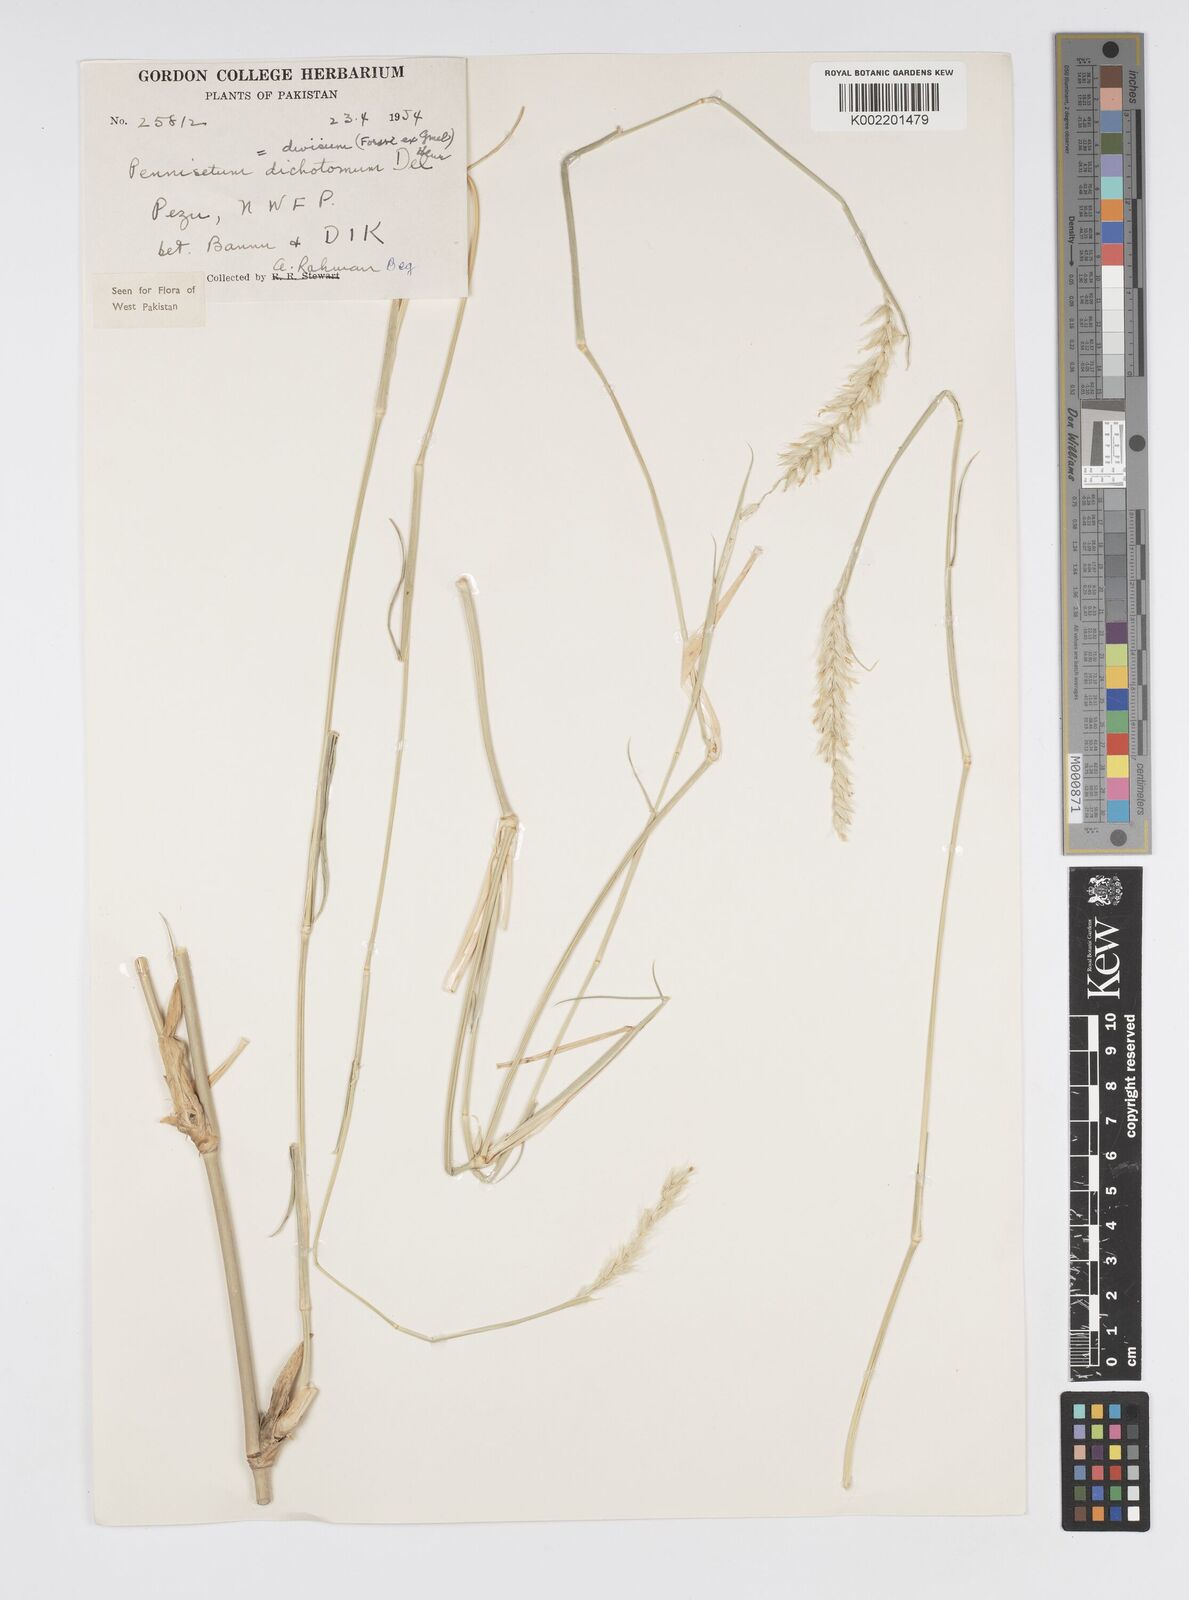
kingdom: Plantae
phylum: Tracheophyta
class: Liliopsida
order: Poales
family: Poaceae
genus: Cenchrus
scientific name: Cenchrus divisus
